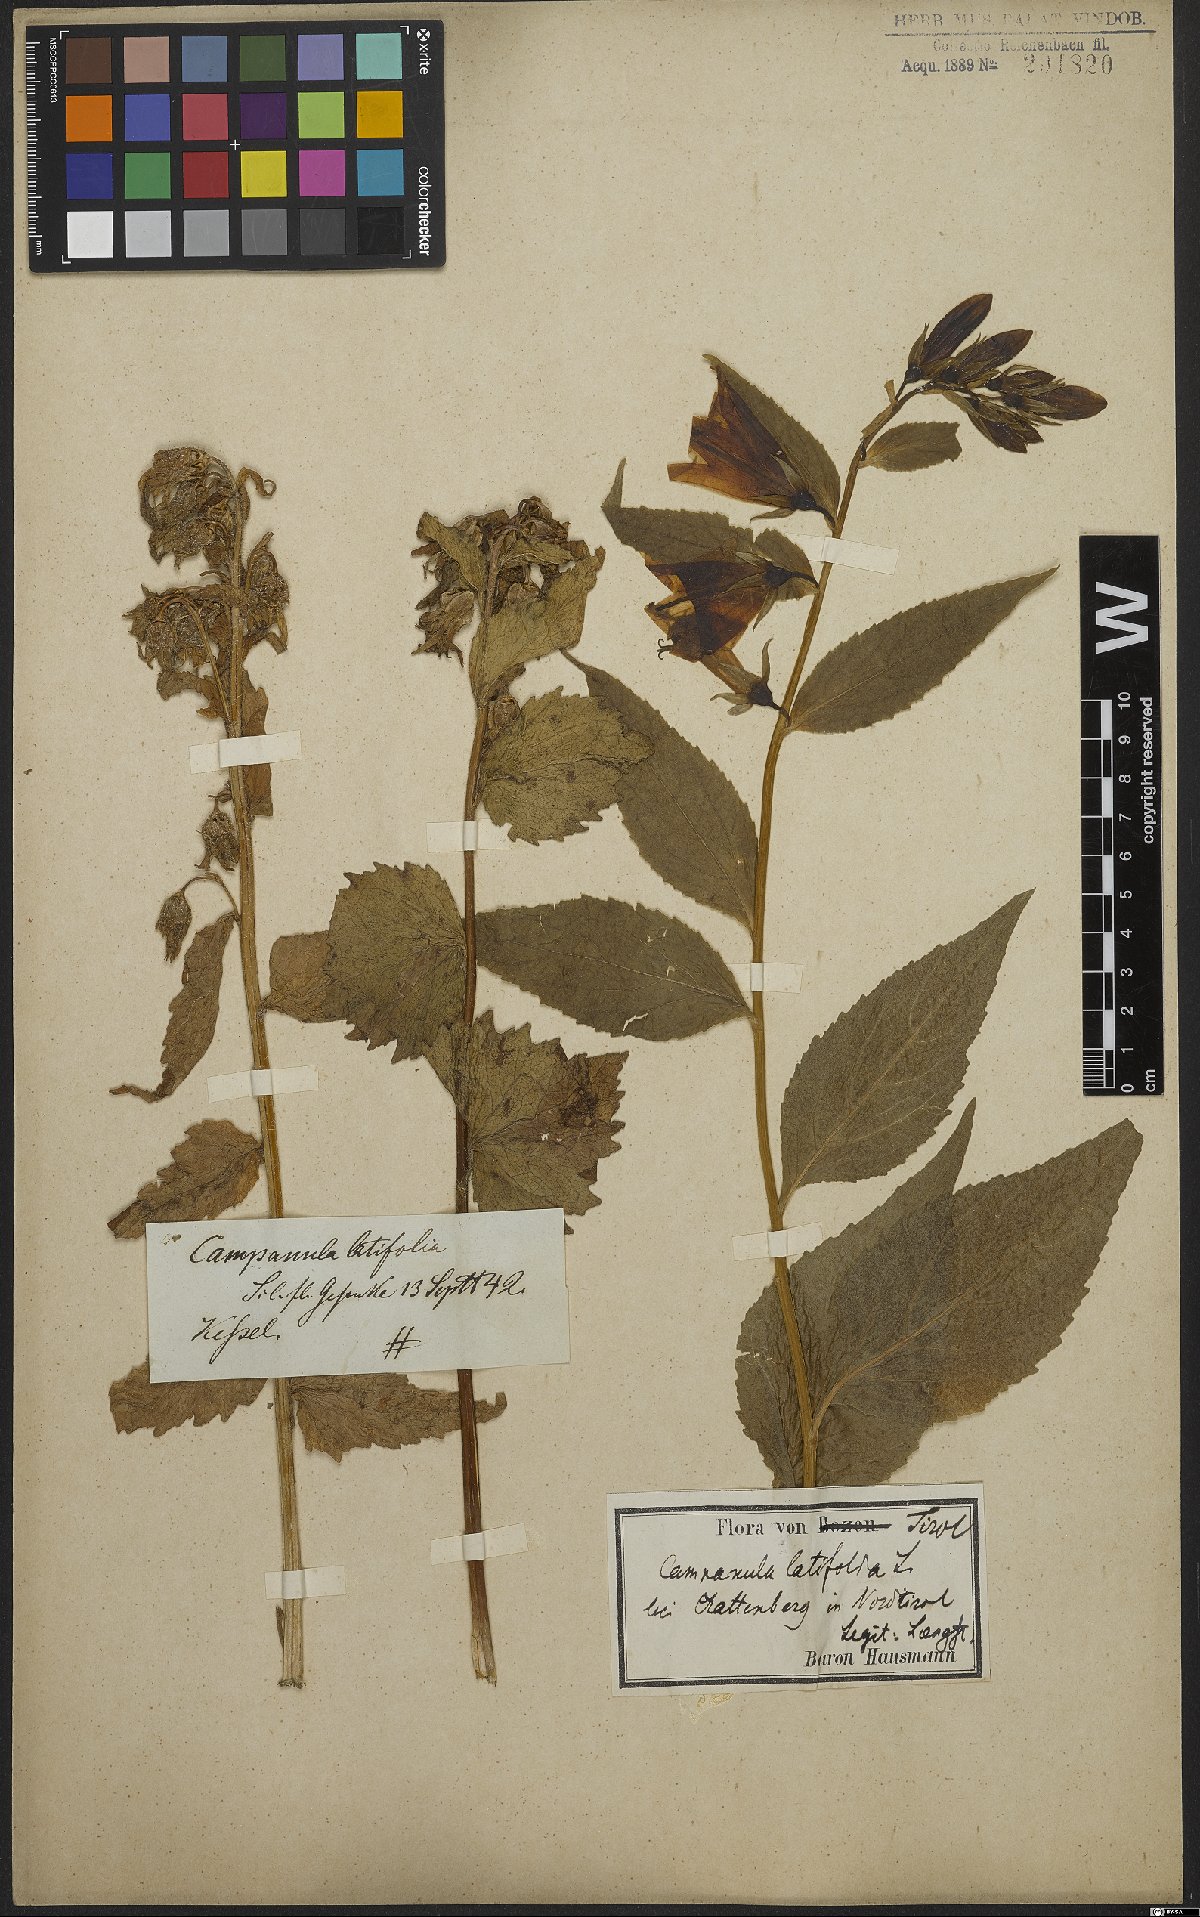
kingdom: Plantae
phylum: Tracheophyta
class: Magnoliopsida
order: Asterales
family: Campanulaceae
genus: Campanula
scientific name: Campanula latifolia
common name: Giant bellflower
